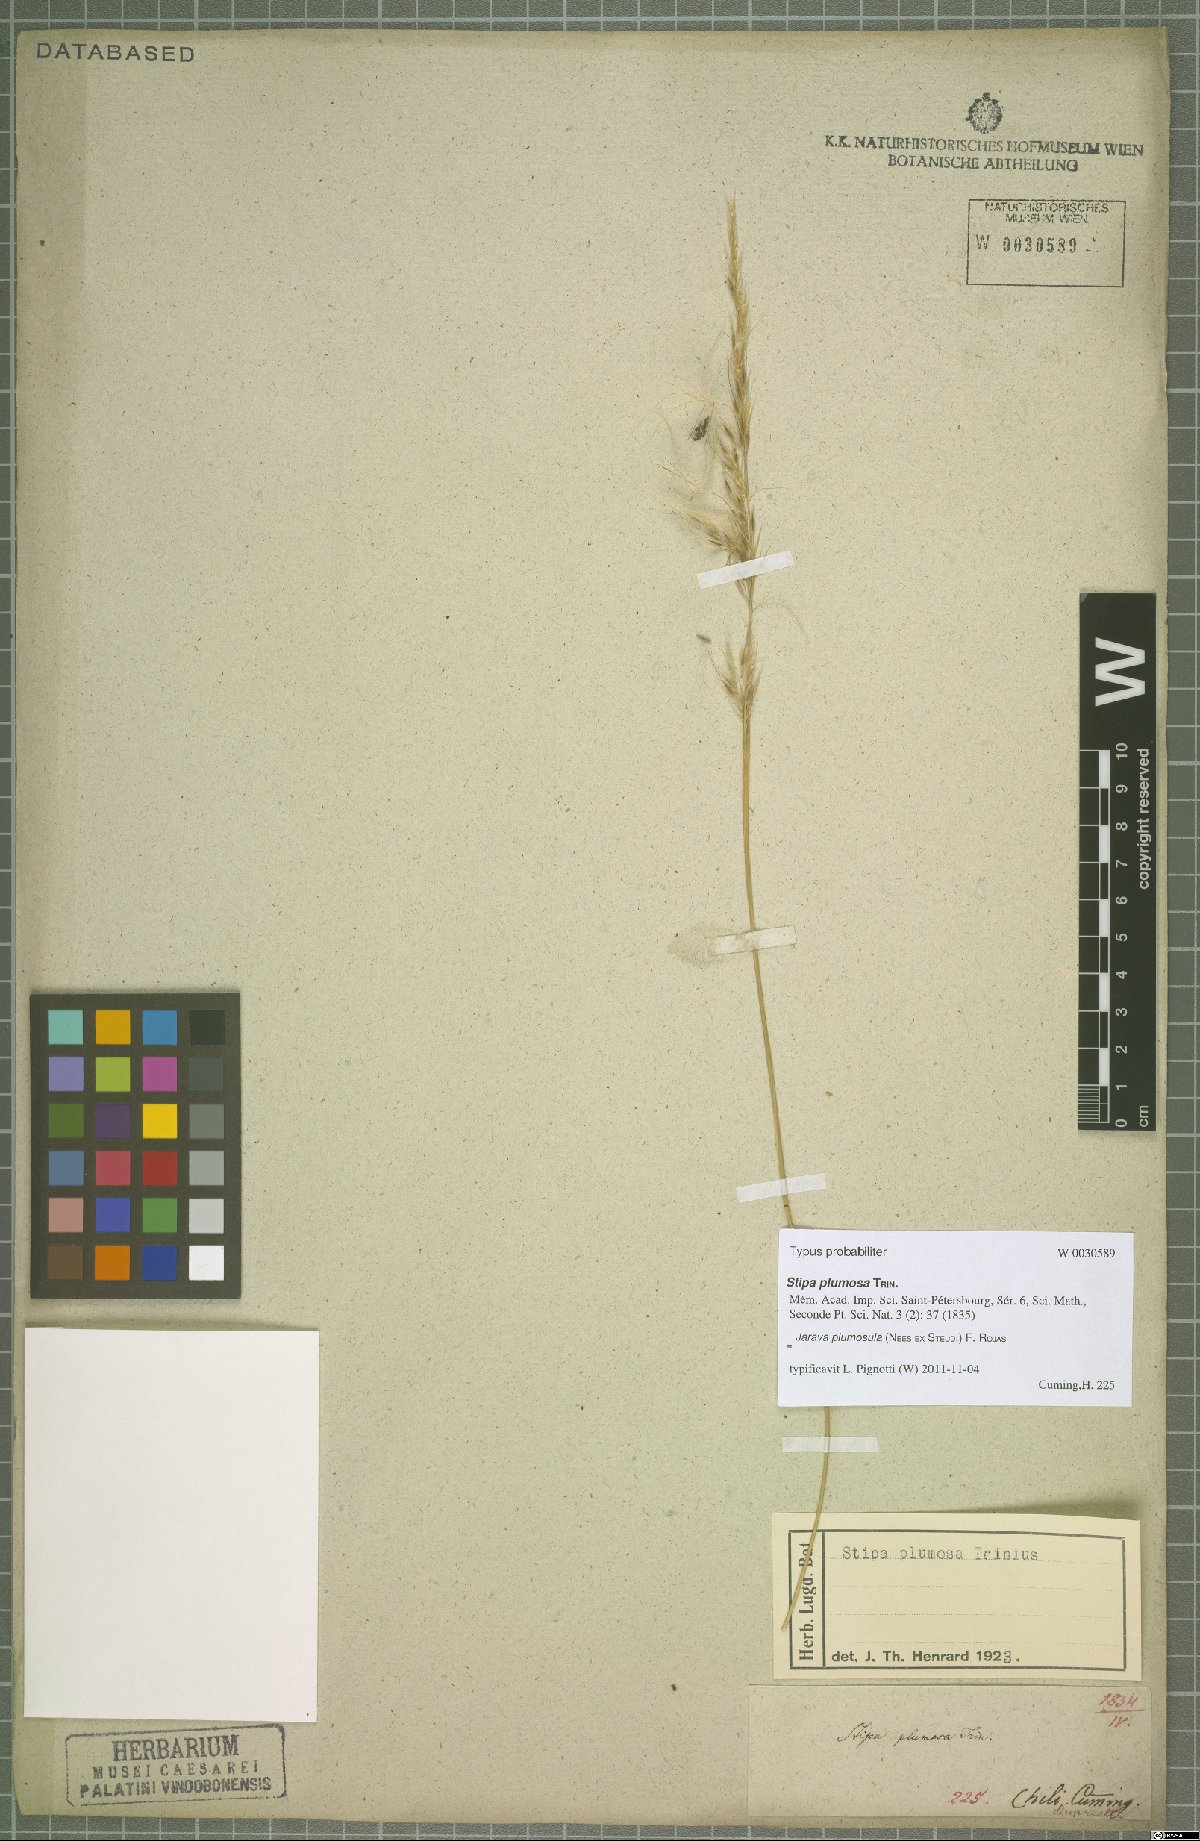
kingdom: Plantae
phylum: Tracheophyta
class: Liliopsida
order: Poales
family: Poaceae
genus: Stipa
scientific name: Stipa plumosa
